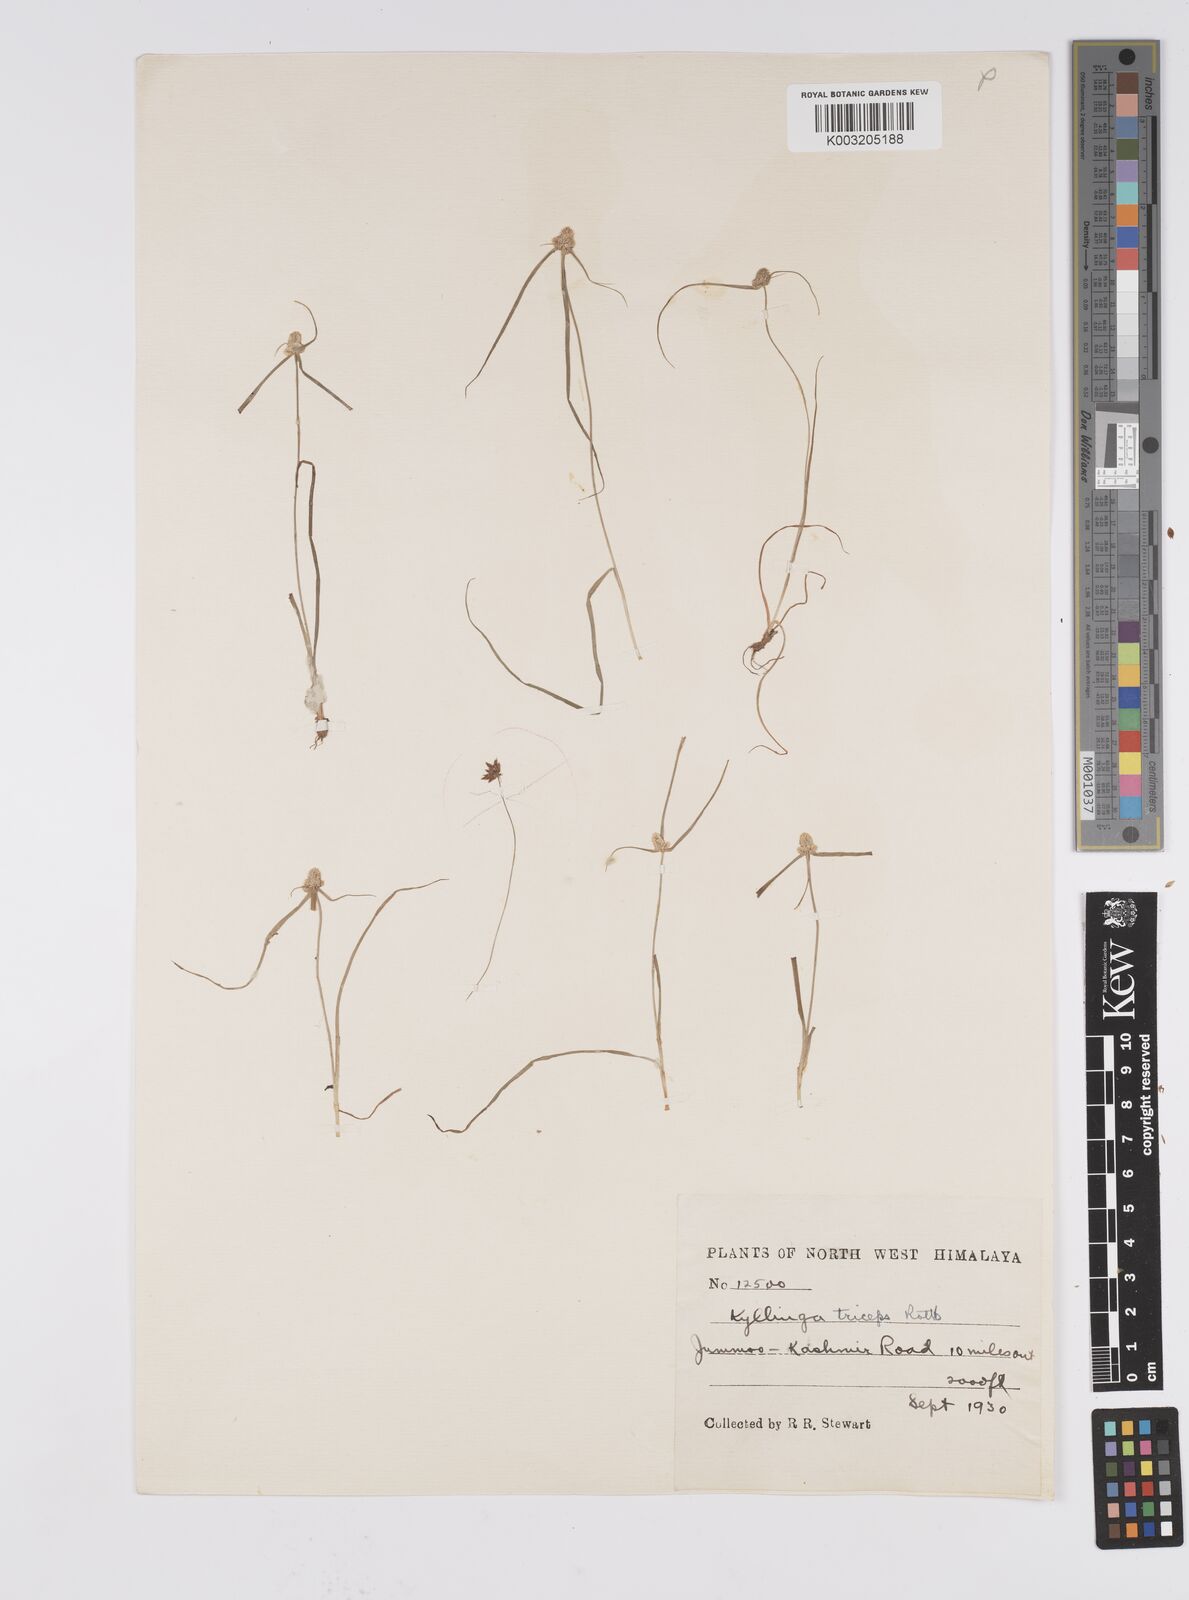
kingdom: Plantae
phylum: Tracheophyta
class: Liliopsida
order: Poales
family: Cyperaceae
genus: Cyperus
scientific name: Cyperus
